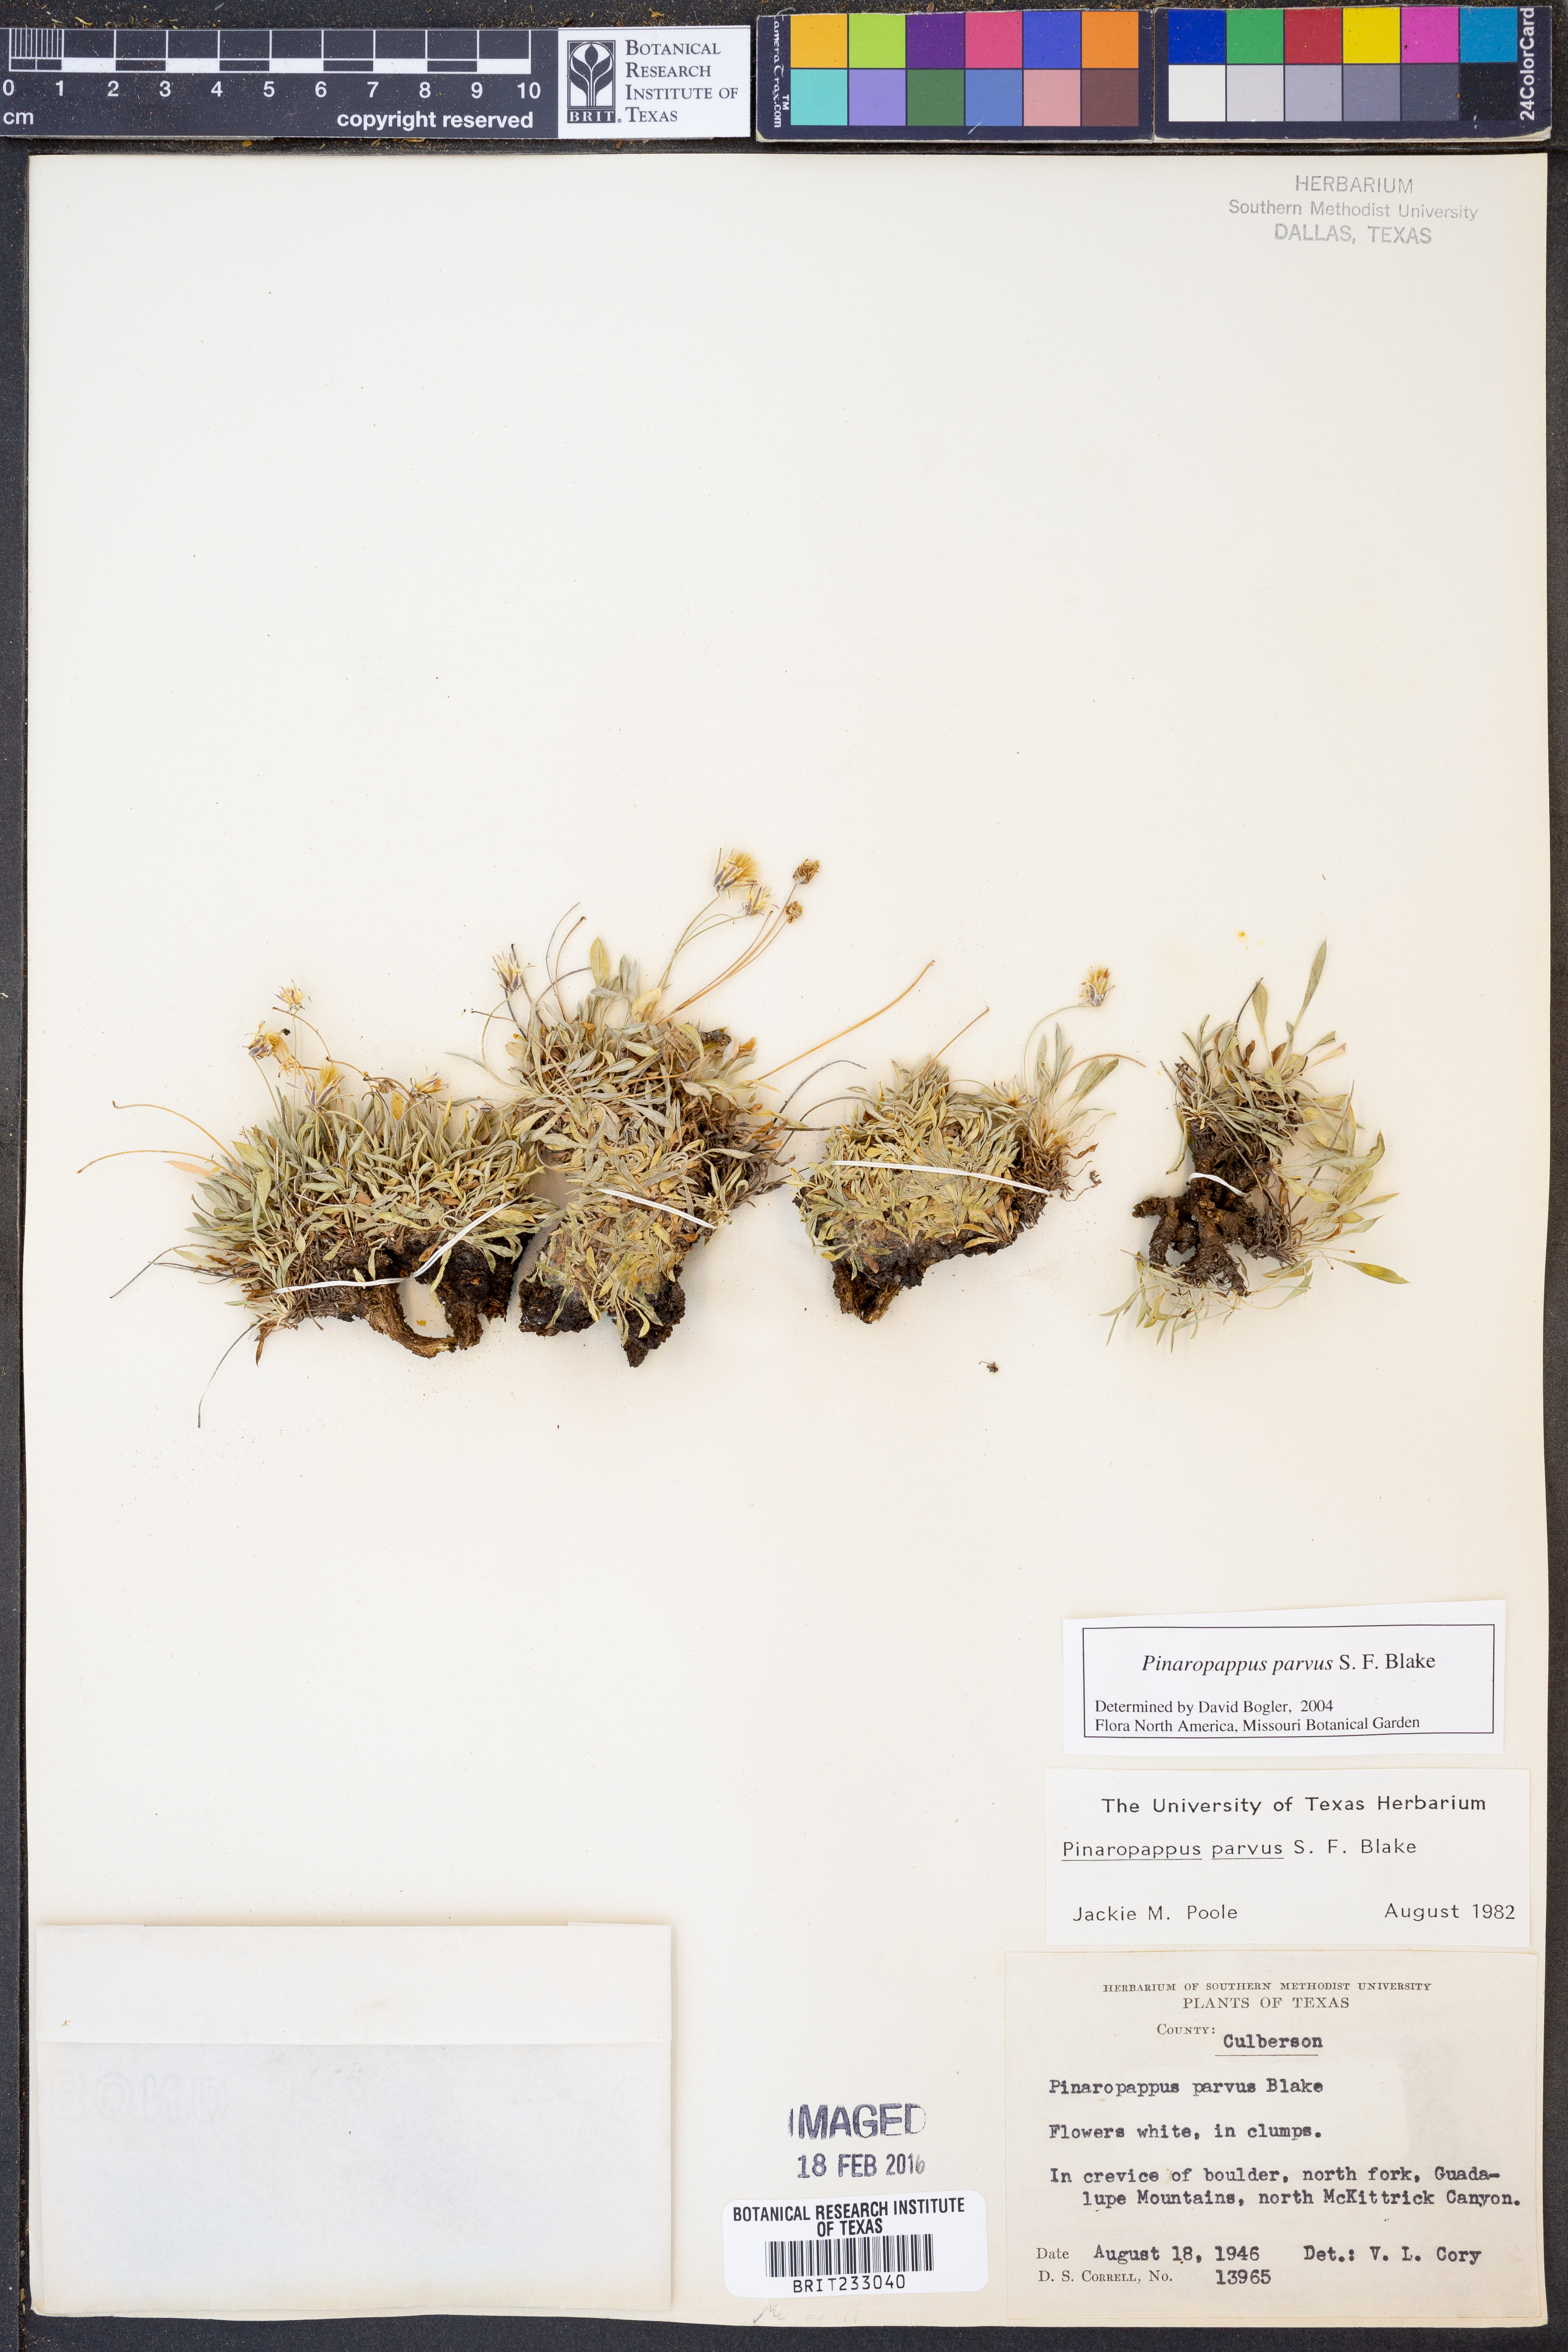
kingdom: Plantae
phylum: Tracheophyta
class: Magnoliopsida
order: Asterales
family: Asteraceae
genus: Pinaropappus
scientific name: Pinaropappus parvus
